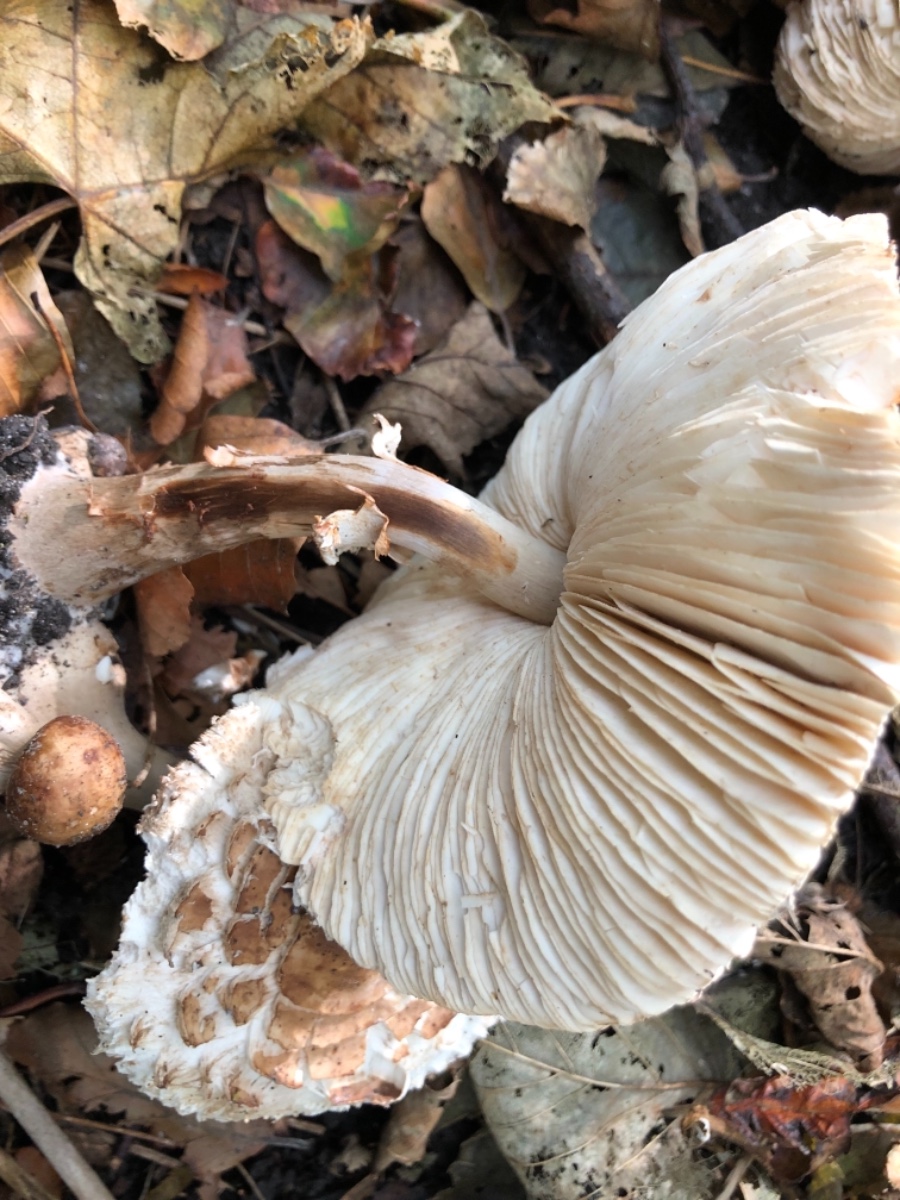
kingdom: Fungi
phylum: Basidiomycota
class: Agaricomycetes
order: Agaricales
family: Agaricaceae
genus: Chlorophyllum
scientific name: Chlorophyllum rhacodes
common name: ægte rabarberhat
